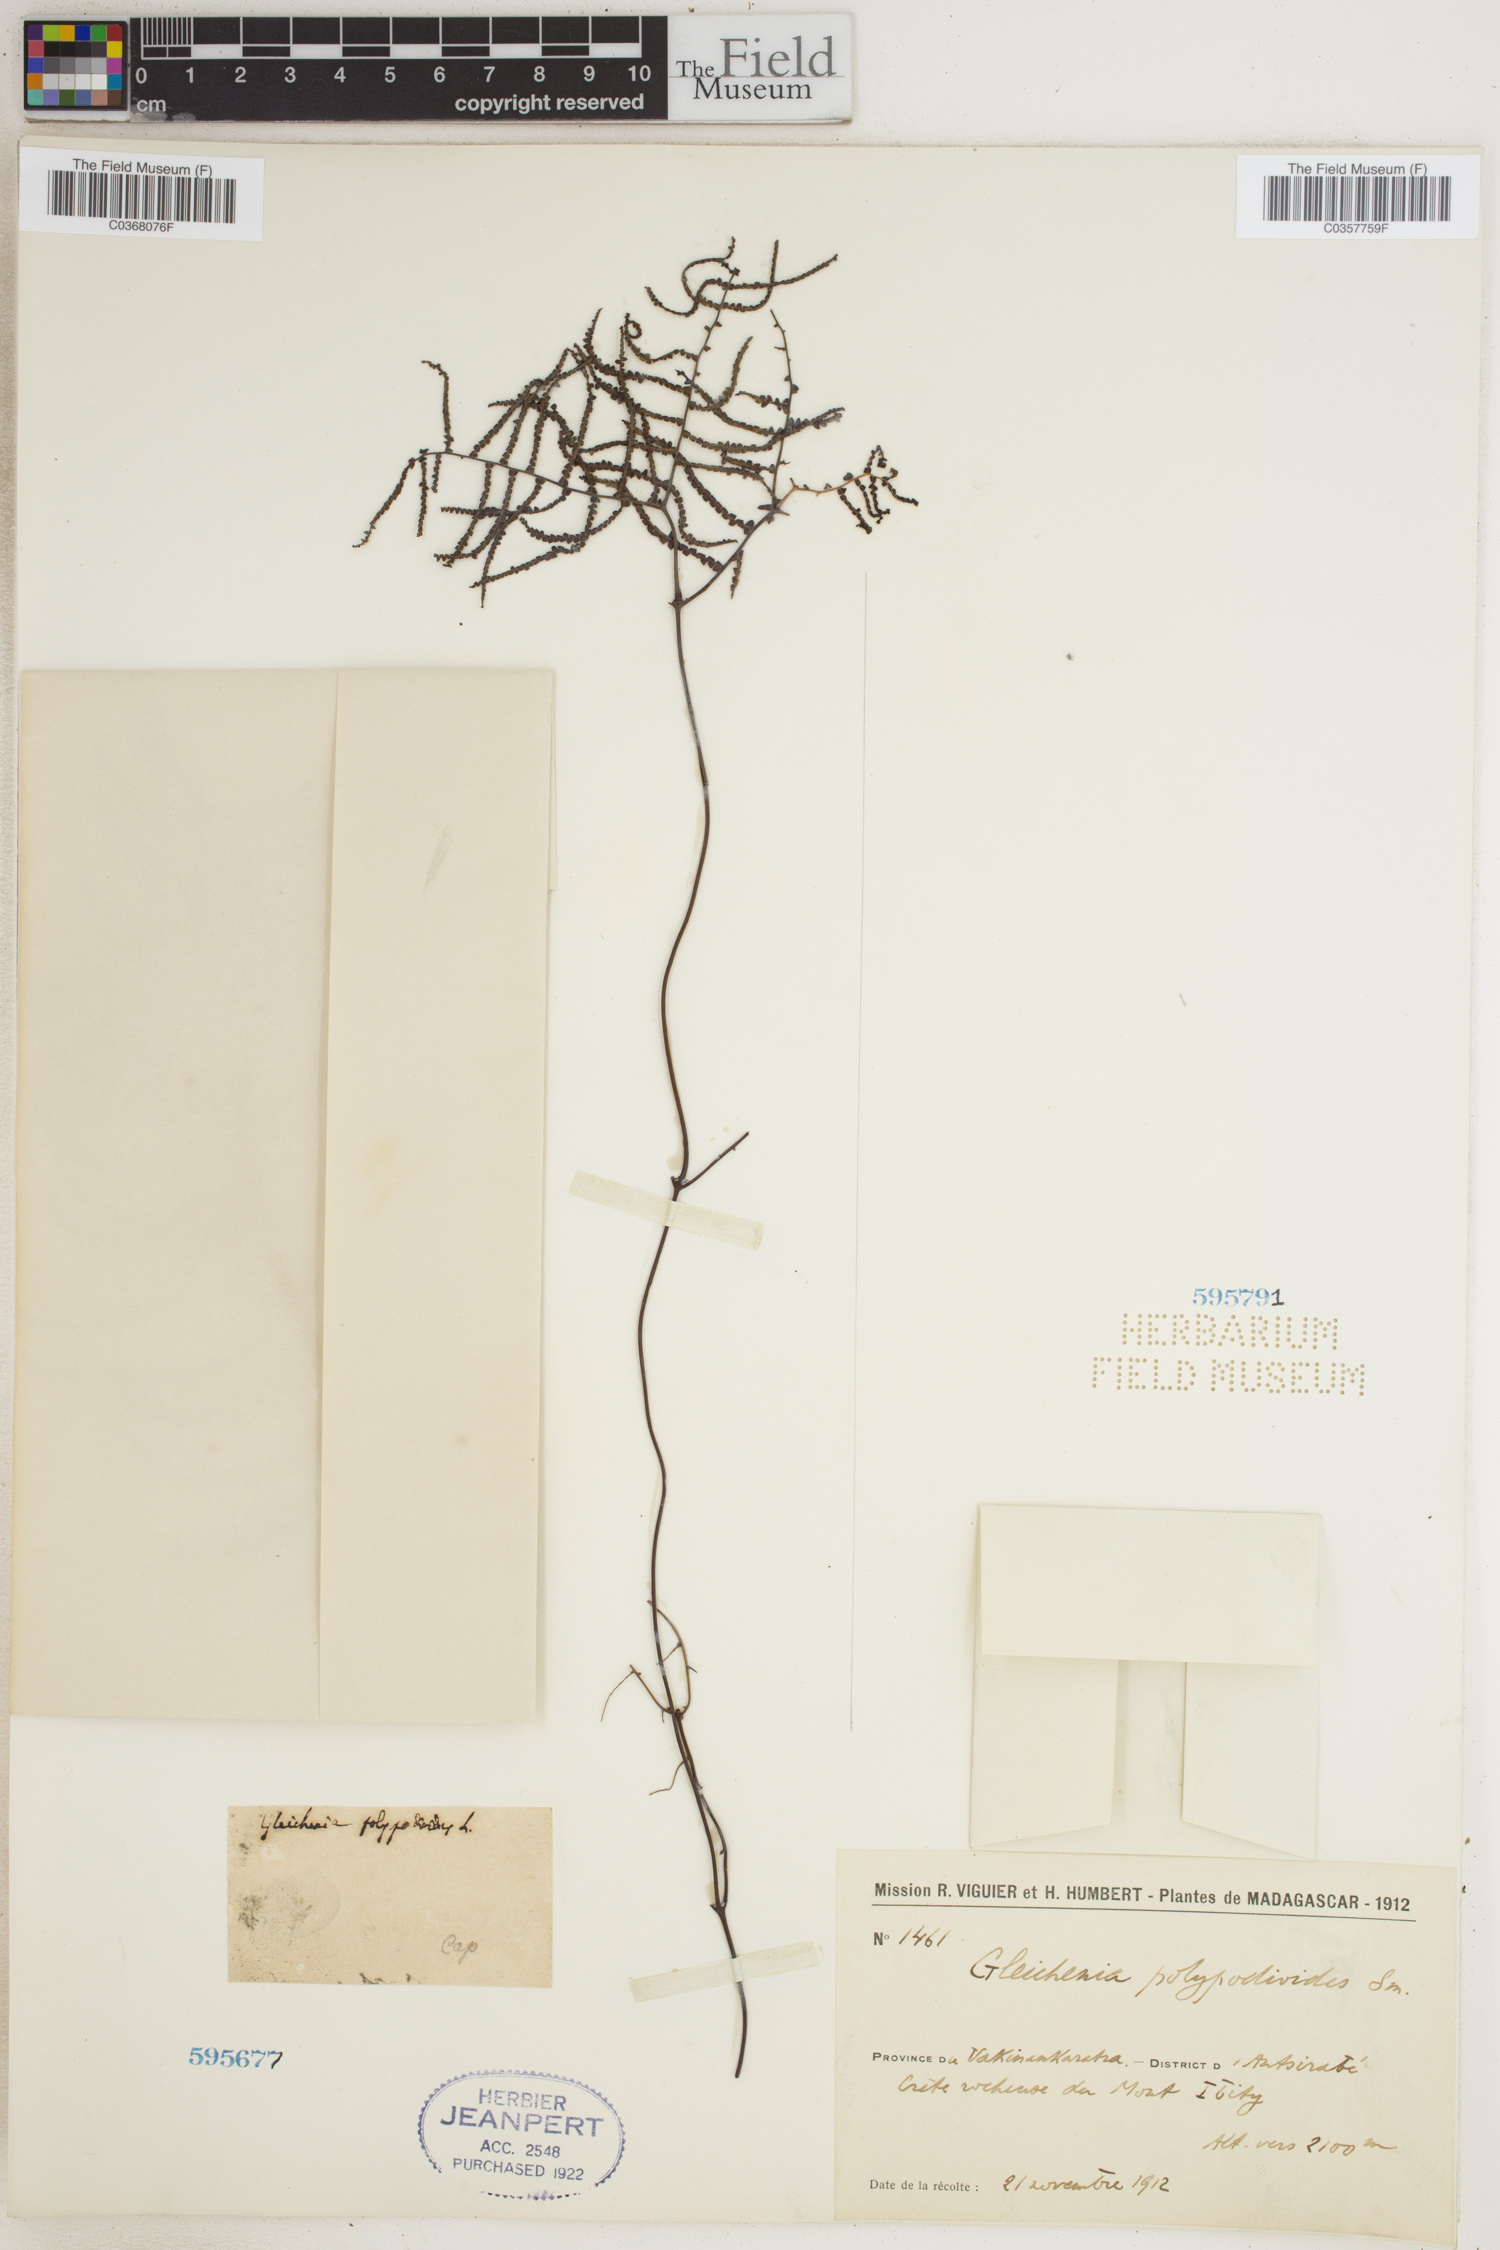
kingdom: Plantae
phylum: Tracheophyta
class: Polypodiopsida
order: Gleicheniales
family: Gleicheniaceae
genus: Gleichenia
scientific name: Gleichenia polypodioides
